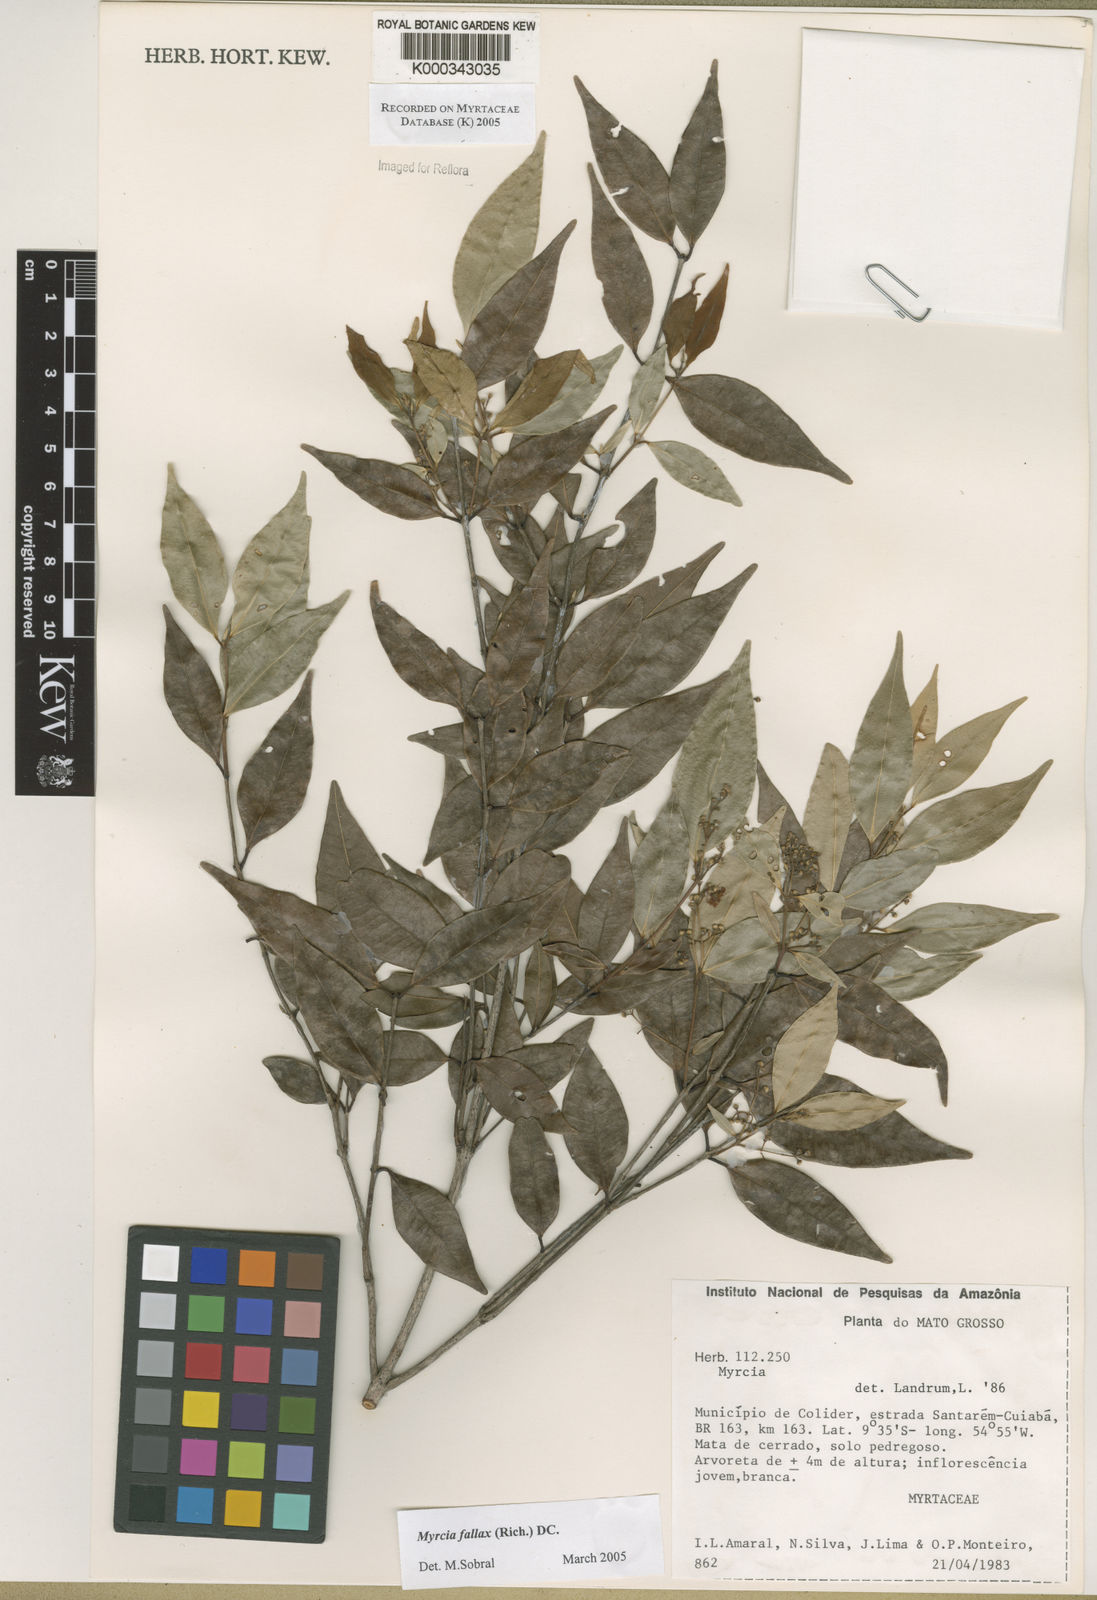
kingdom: Plantae
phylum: Tracheophyta
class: Magnoliopsida
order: Myrtales
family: Myrtaceae
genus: Myrcia
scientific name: Myrcia splendens
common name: Surinam cherry
